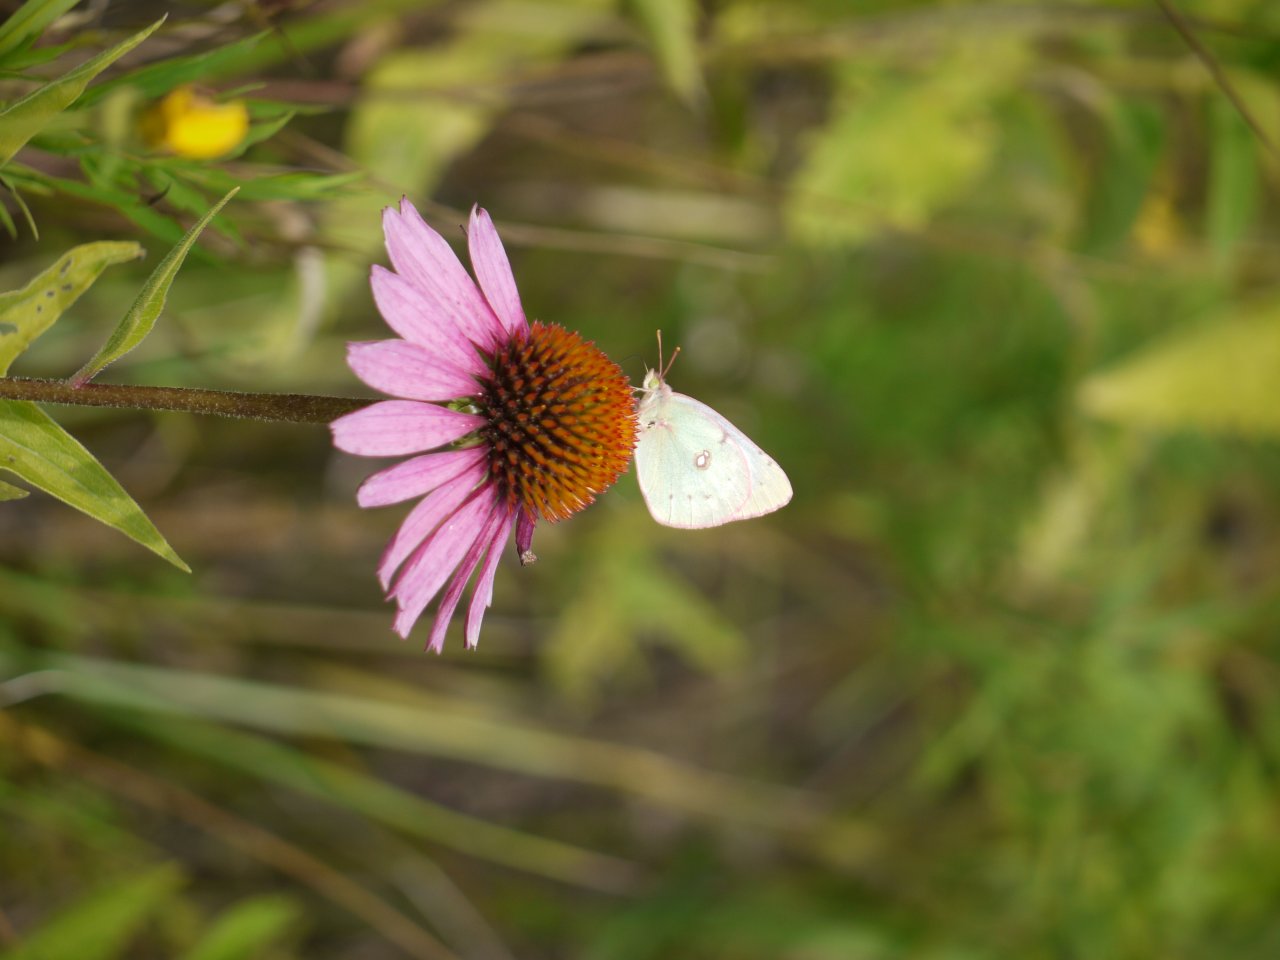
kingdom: Animalia
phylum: Arthropoda
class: Insecta
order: Lepidoptera
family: Pieridae
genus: Colias
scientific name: Colias philodice
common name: Clouded Sulphur
